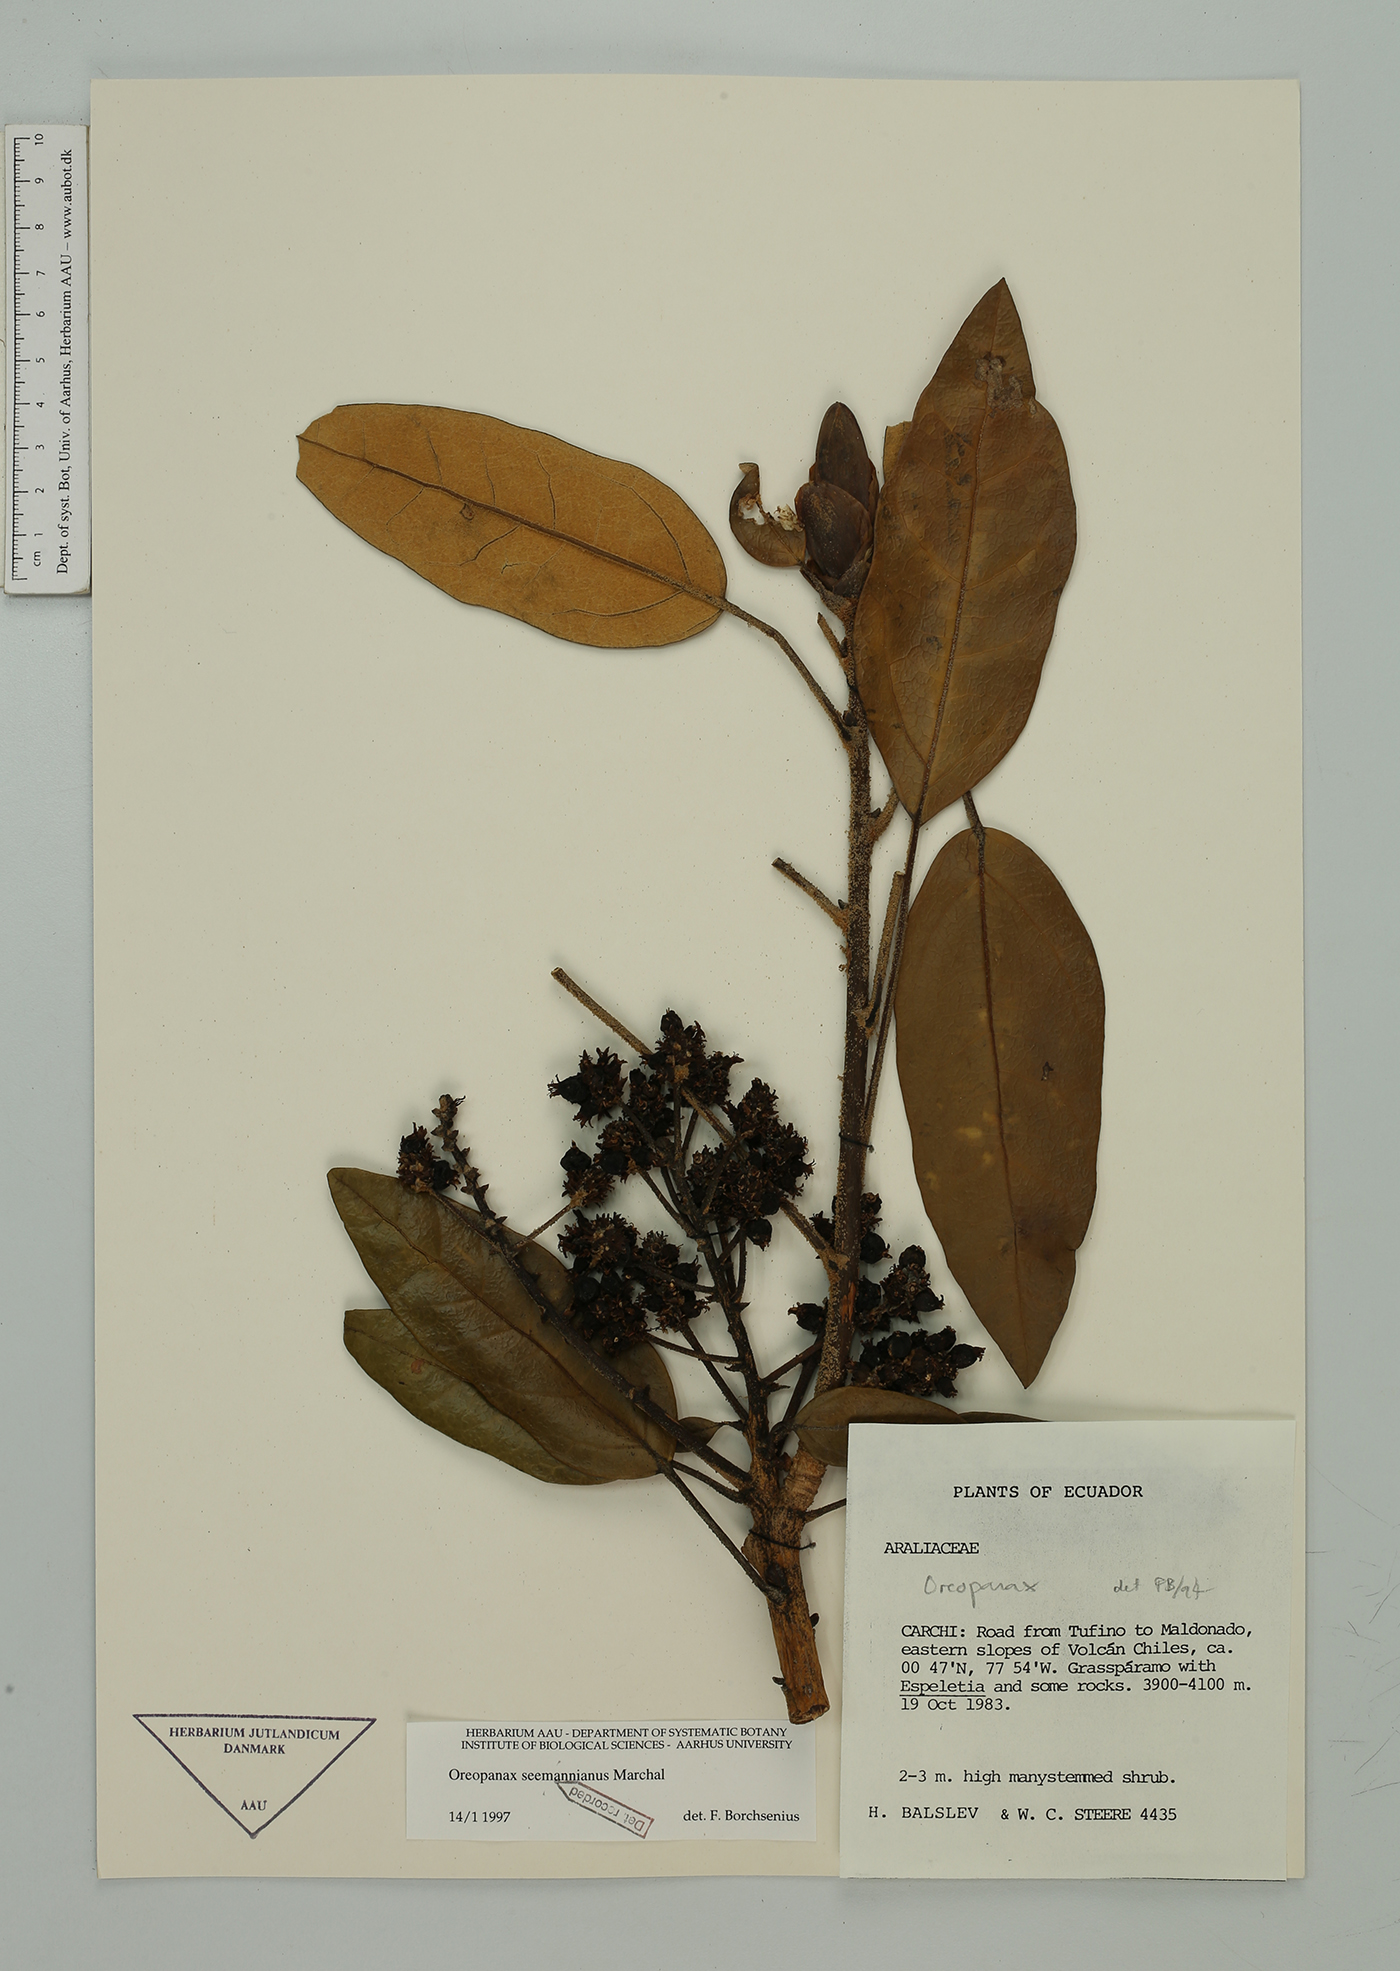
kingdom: Plantae
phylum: Tracheophyta
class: Magnoliopsida
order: Apiales
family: Araliaceae
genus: Oreopanax
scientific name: Oreopanax seemannianus
